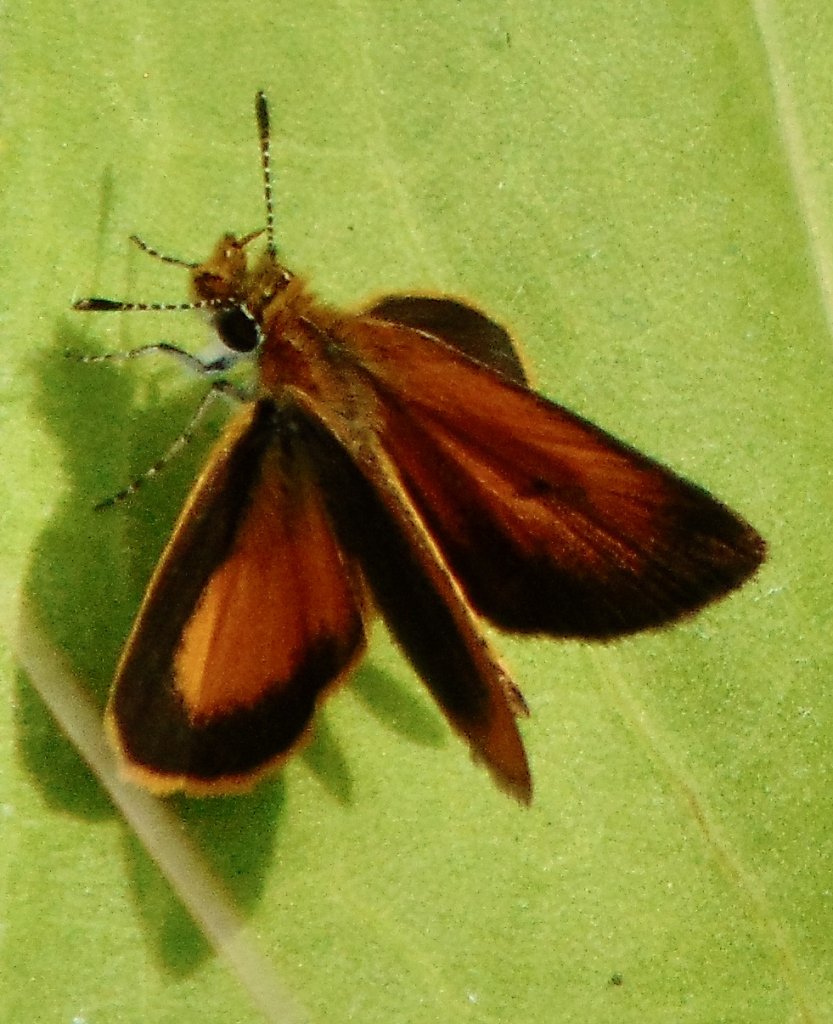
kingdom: Animalia
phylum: Arthropoda
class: Insecta
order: Lepidoptera
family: Hesperiidae
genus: Ancyloxypha
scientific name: Ancyloxypha numitor
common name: Least Skipper
